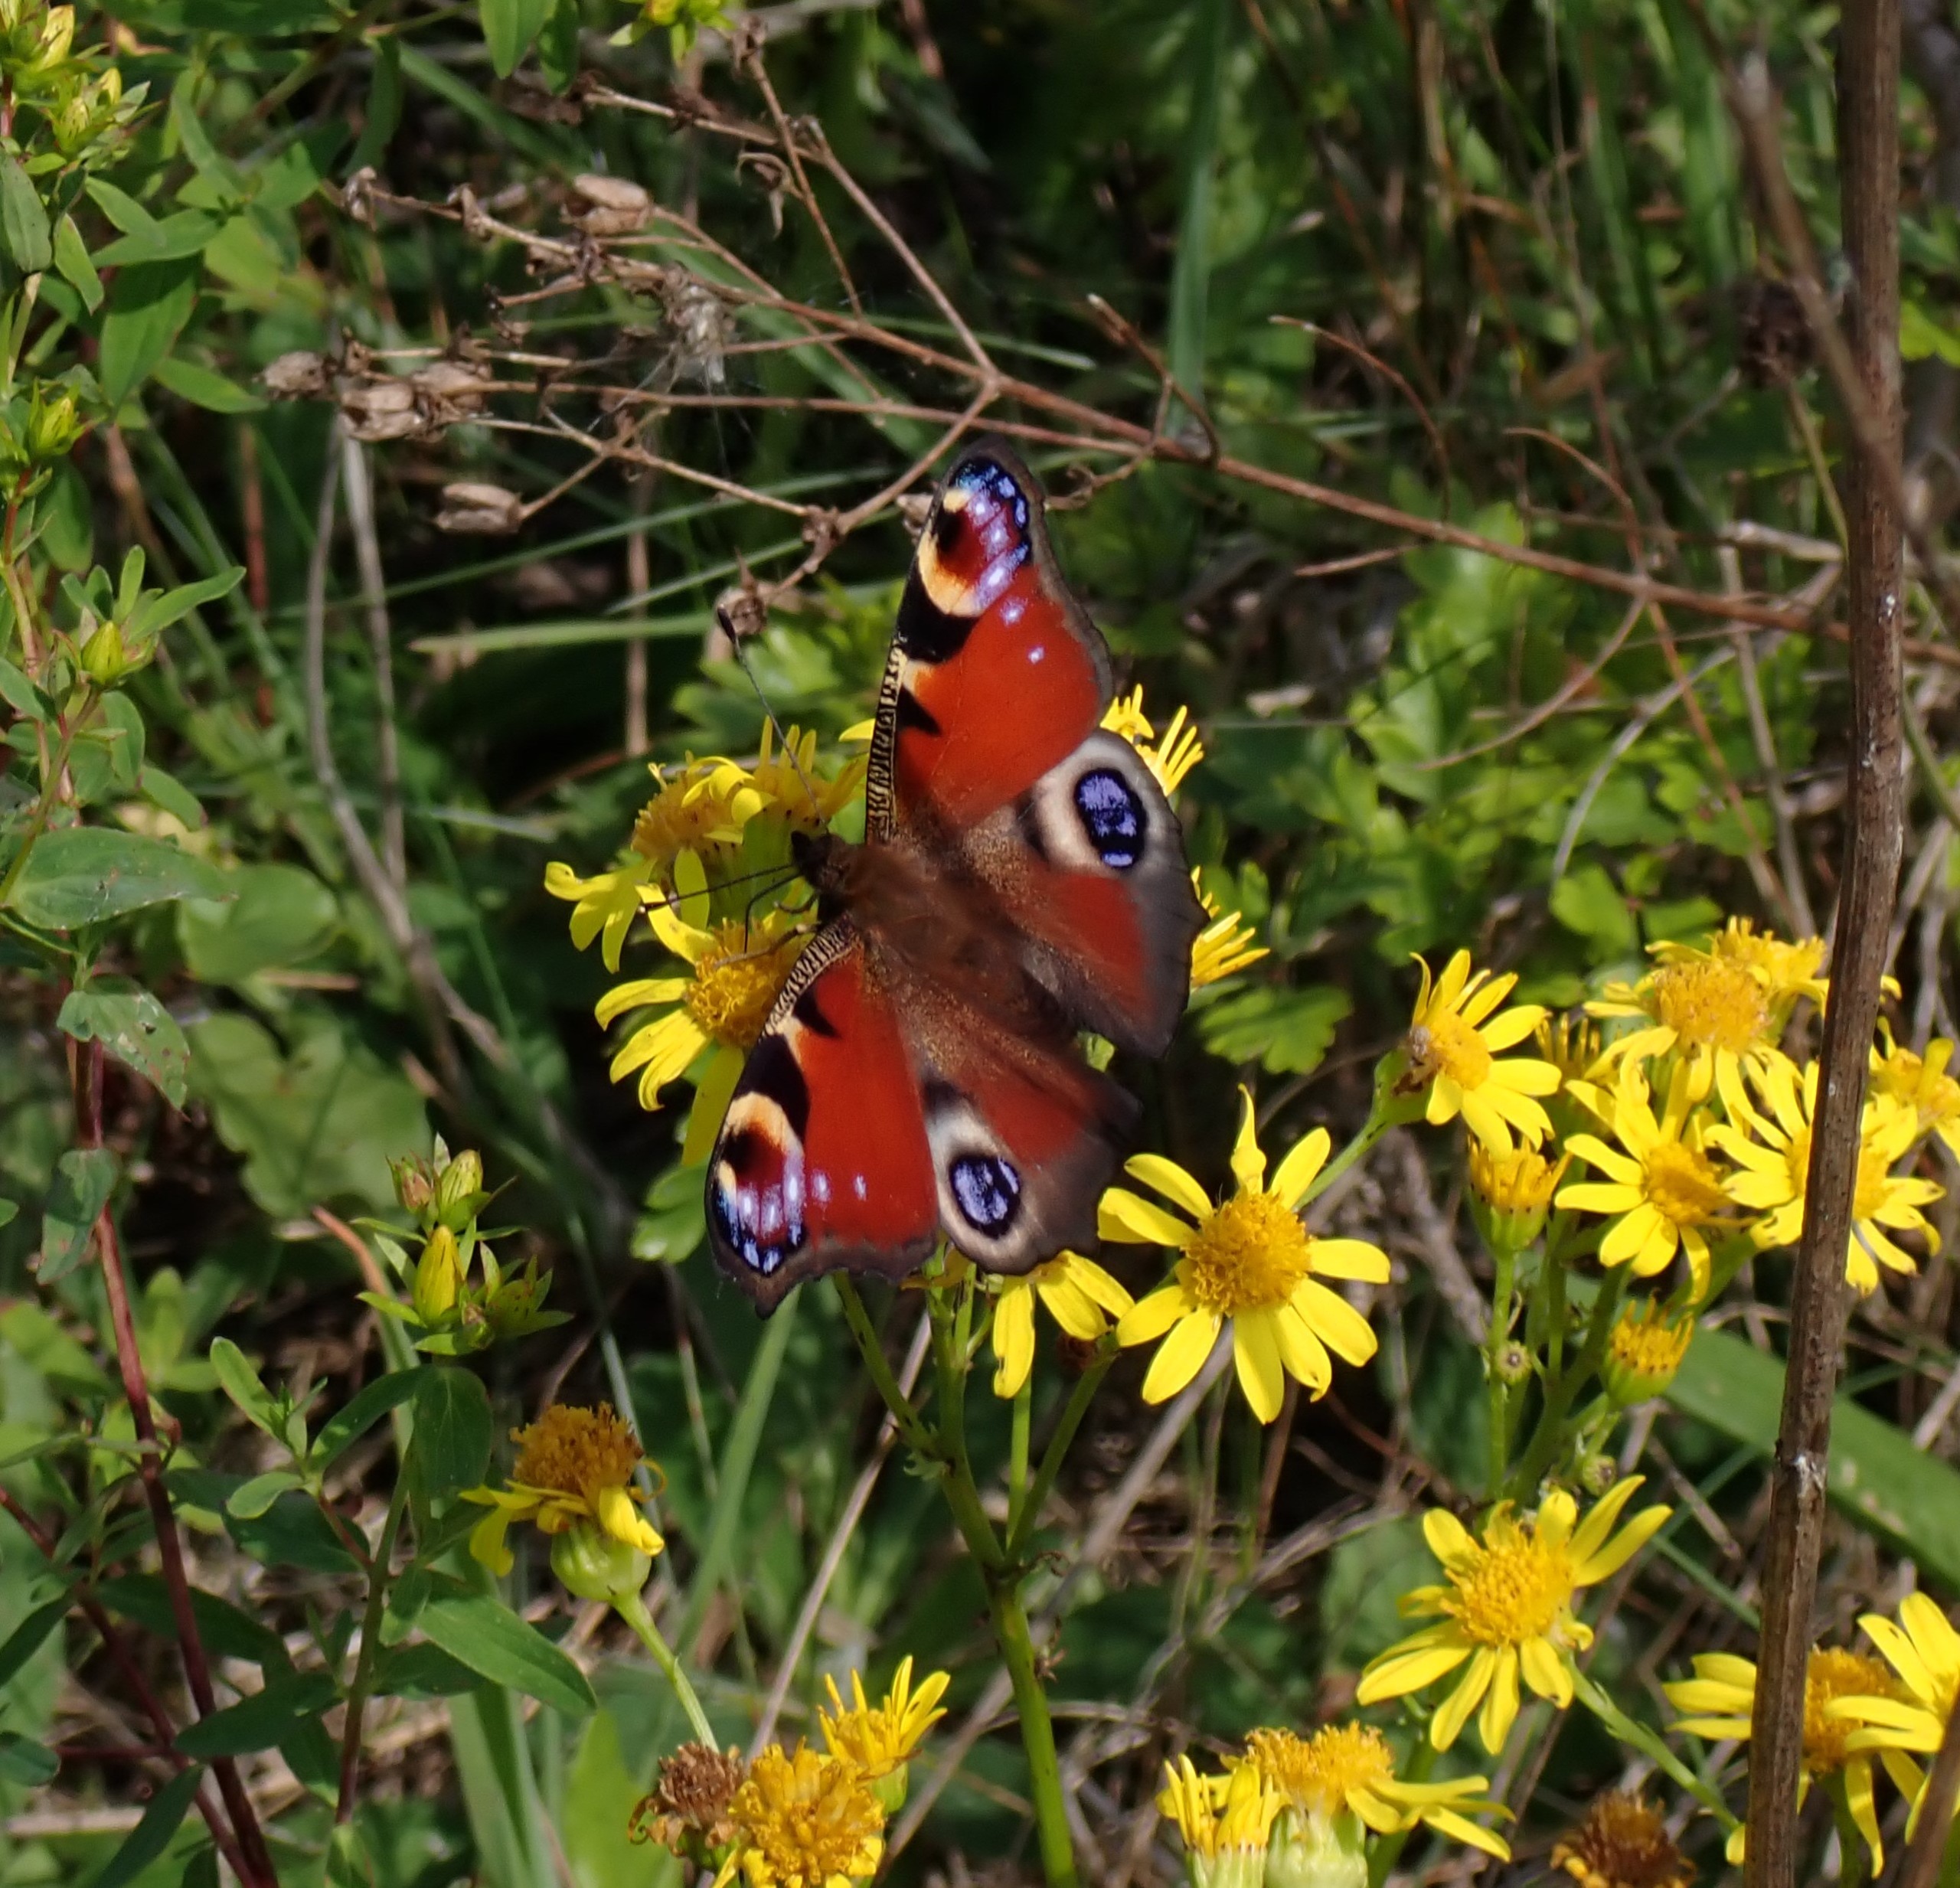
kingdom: Animalia
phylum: Arthropoda
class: Insecta
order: Lepidoptera
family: Nymphalidae
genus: Aglais
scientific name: Aglais io
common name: Dagpåfugleøje
